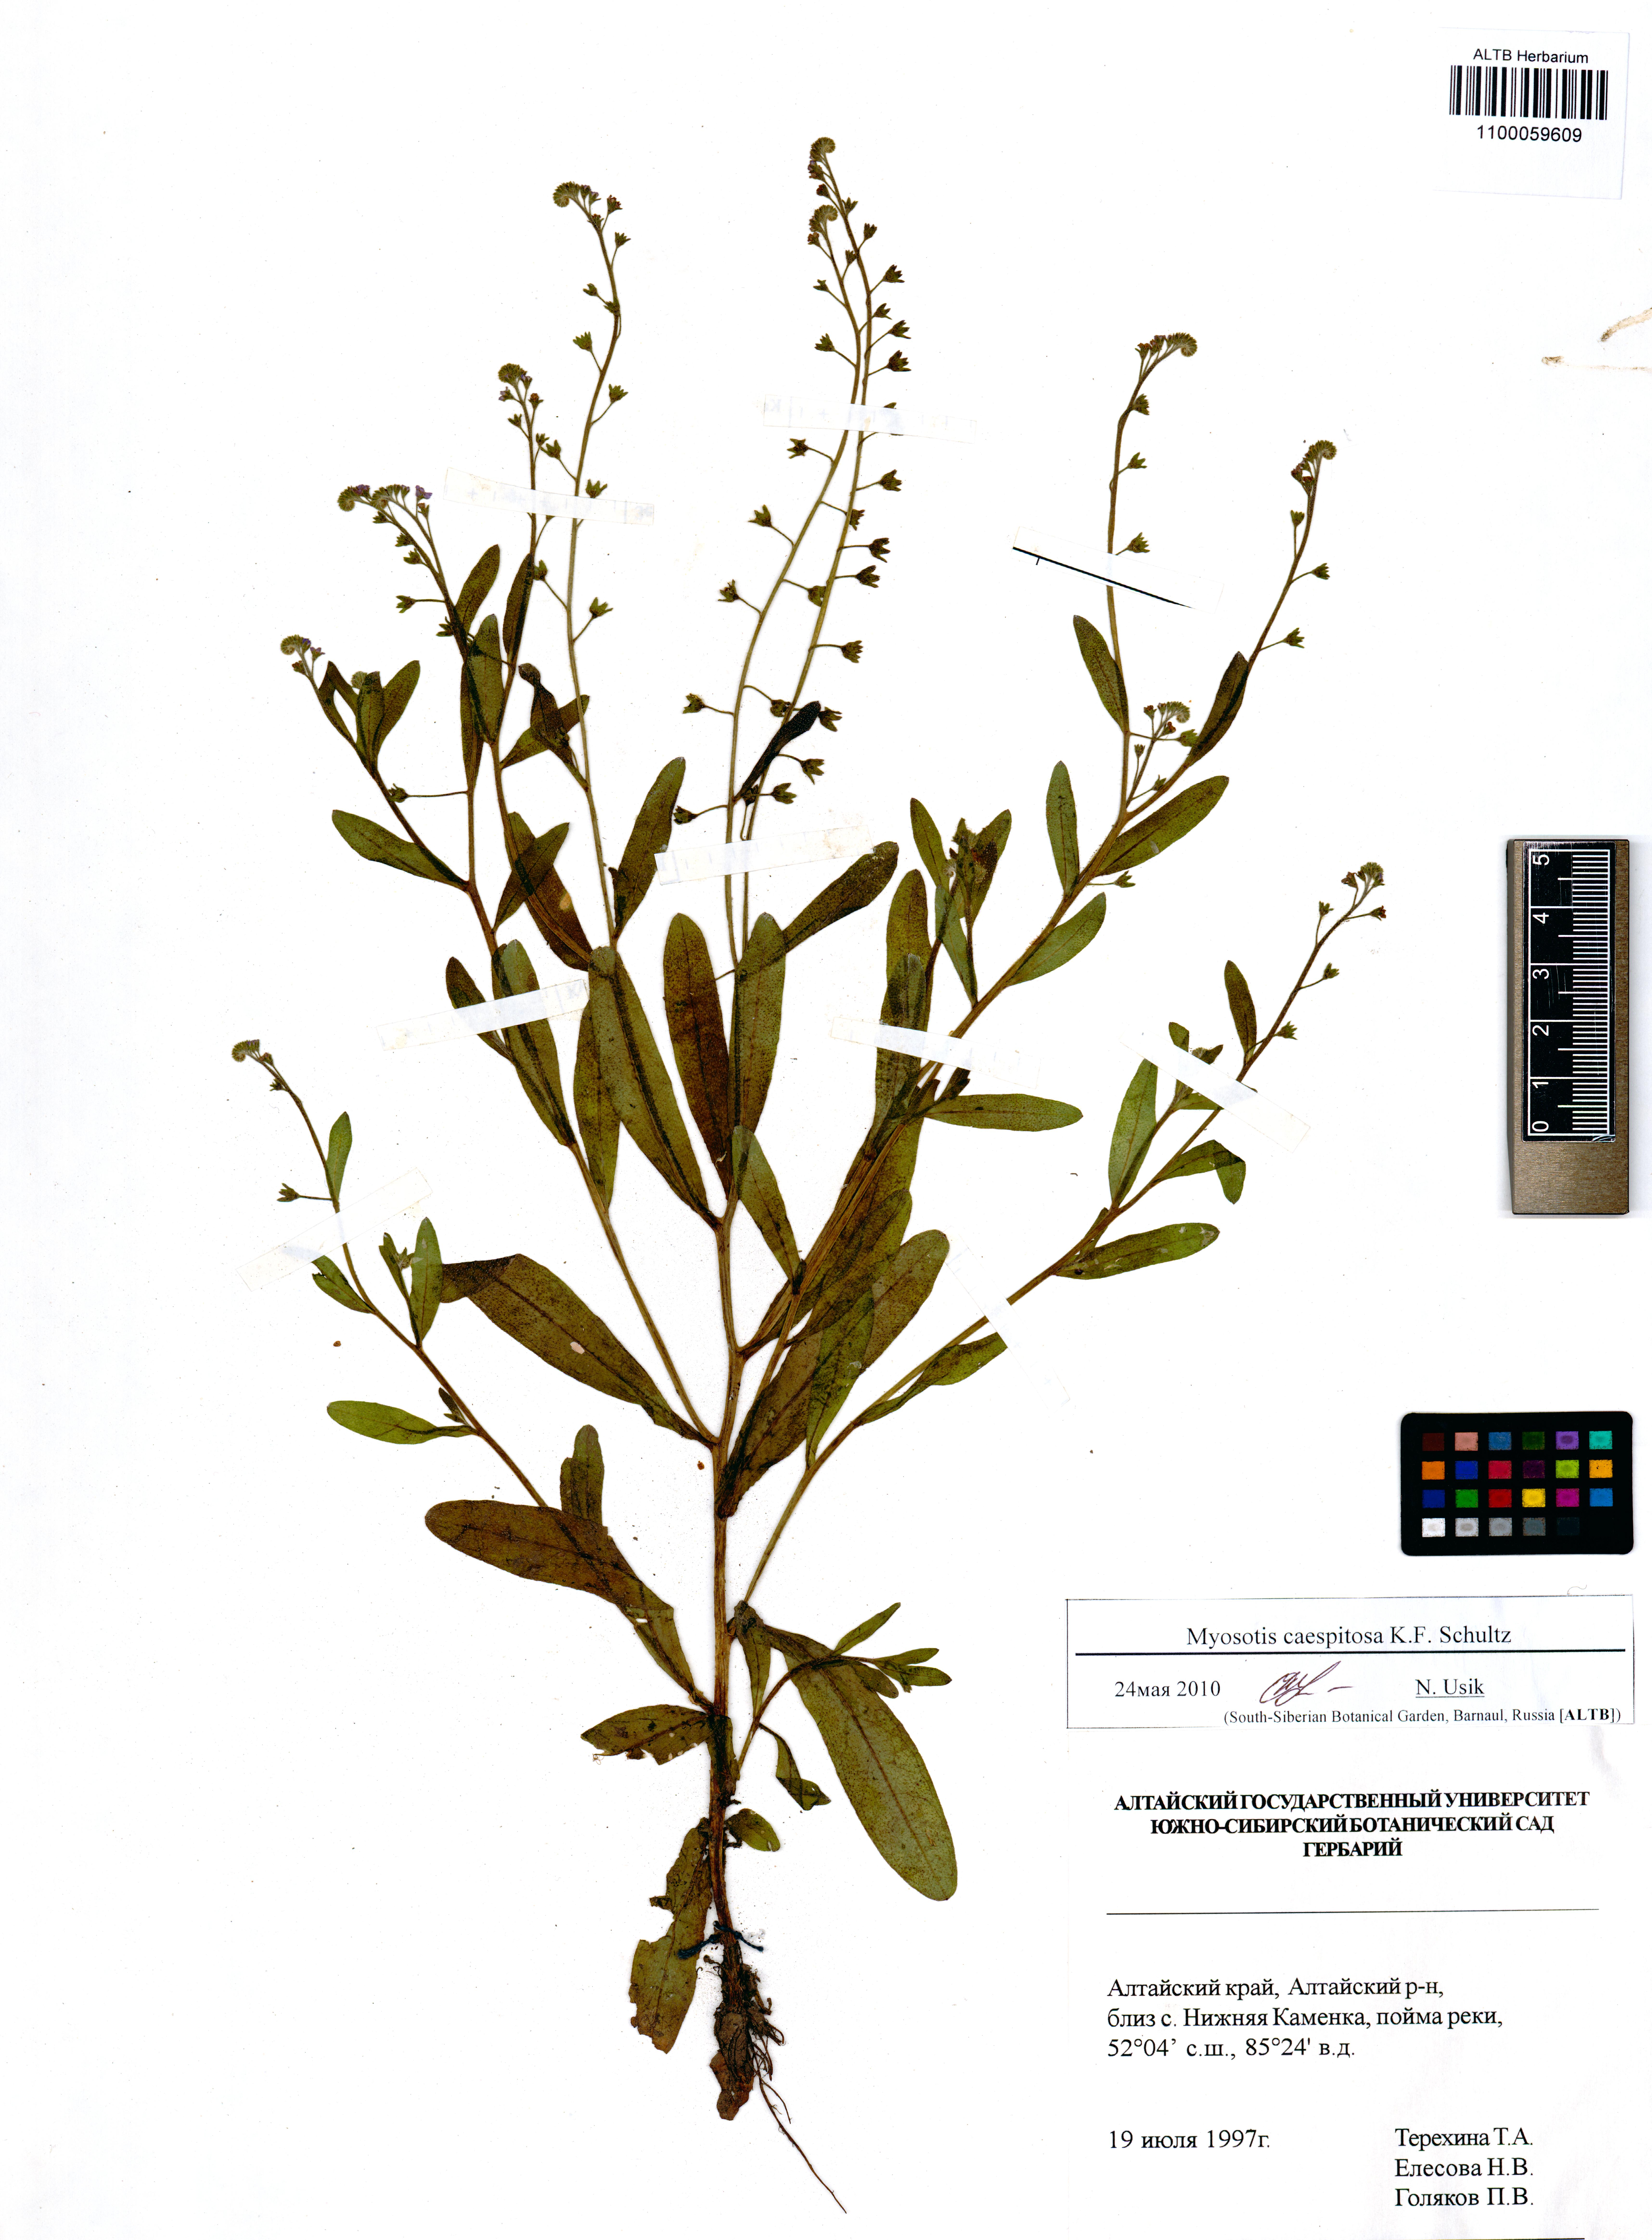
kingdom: Plantae
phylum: Tracheophyta
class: Magnoliopsida
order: Boraginales
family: Boraginaceae
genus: Myosotis
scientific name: Myosotis laxa
